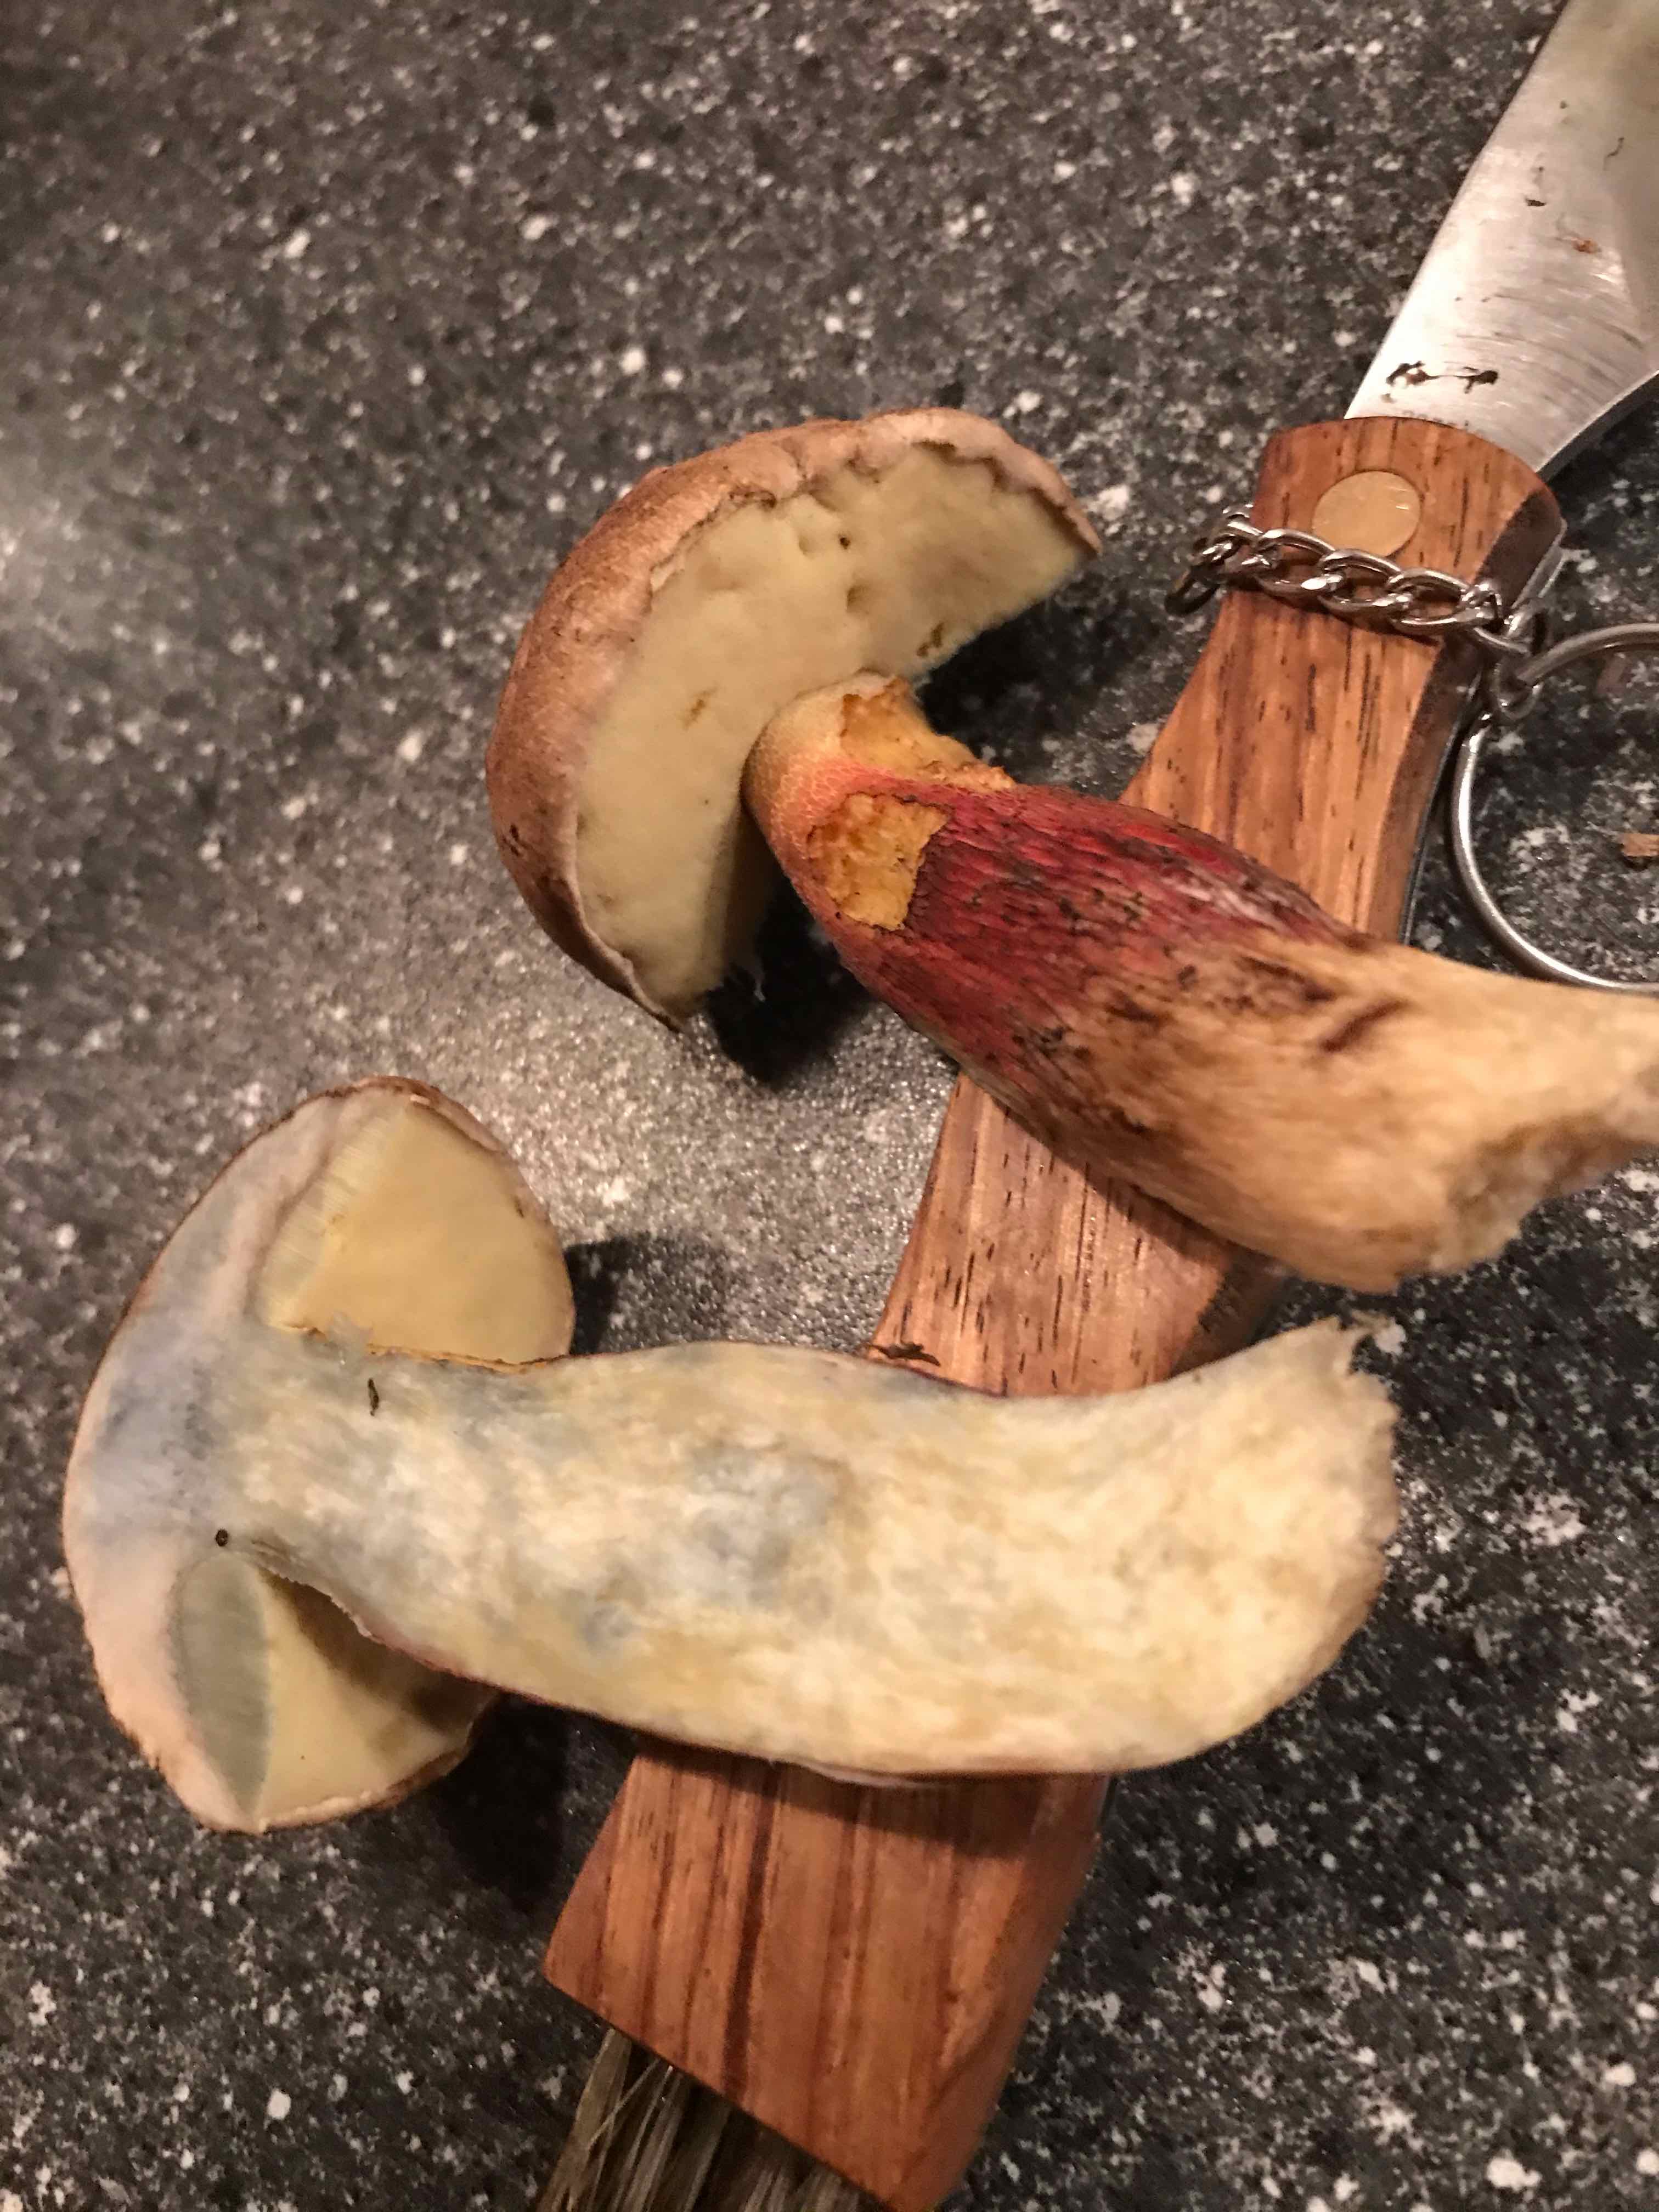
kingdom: Fungi
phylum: Basidiomycota
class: Agaricomycetes
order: Boletales
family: Boletaceae
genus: Caloboletus
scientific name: Caloboletus calopus
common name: skønfodet rørhat
